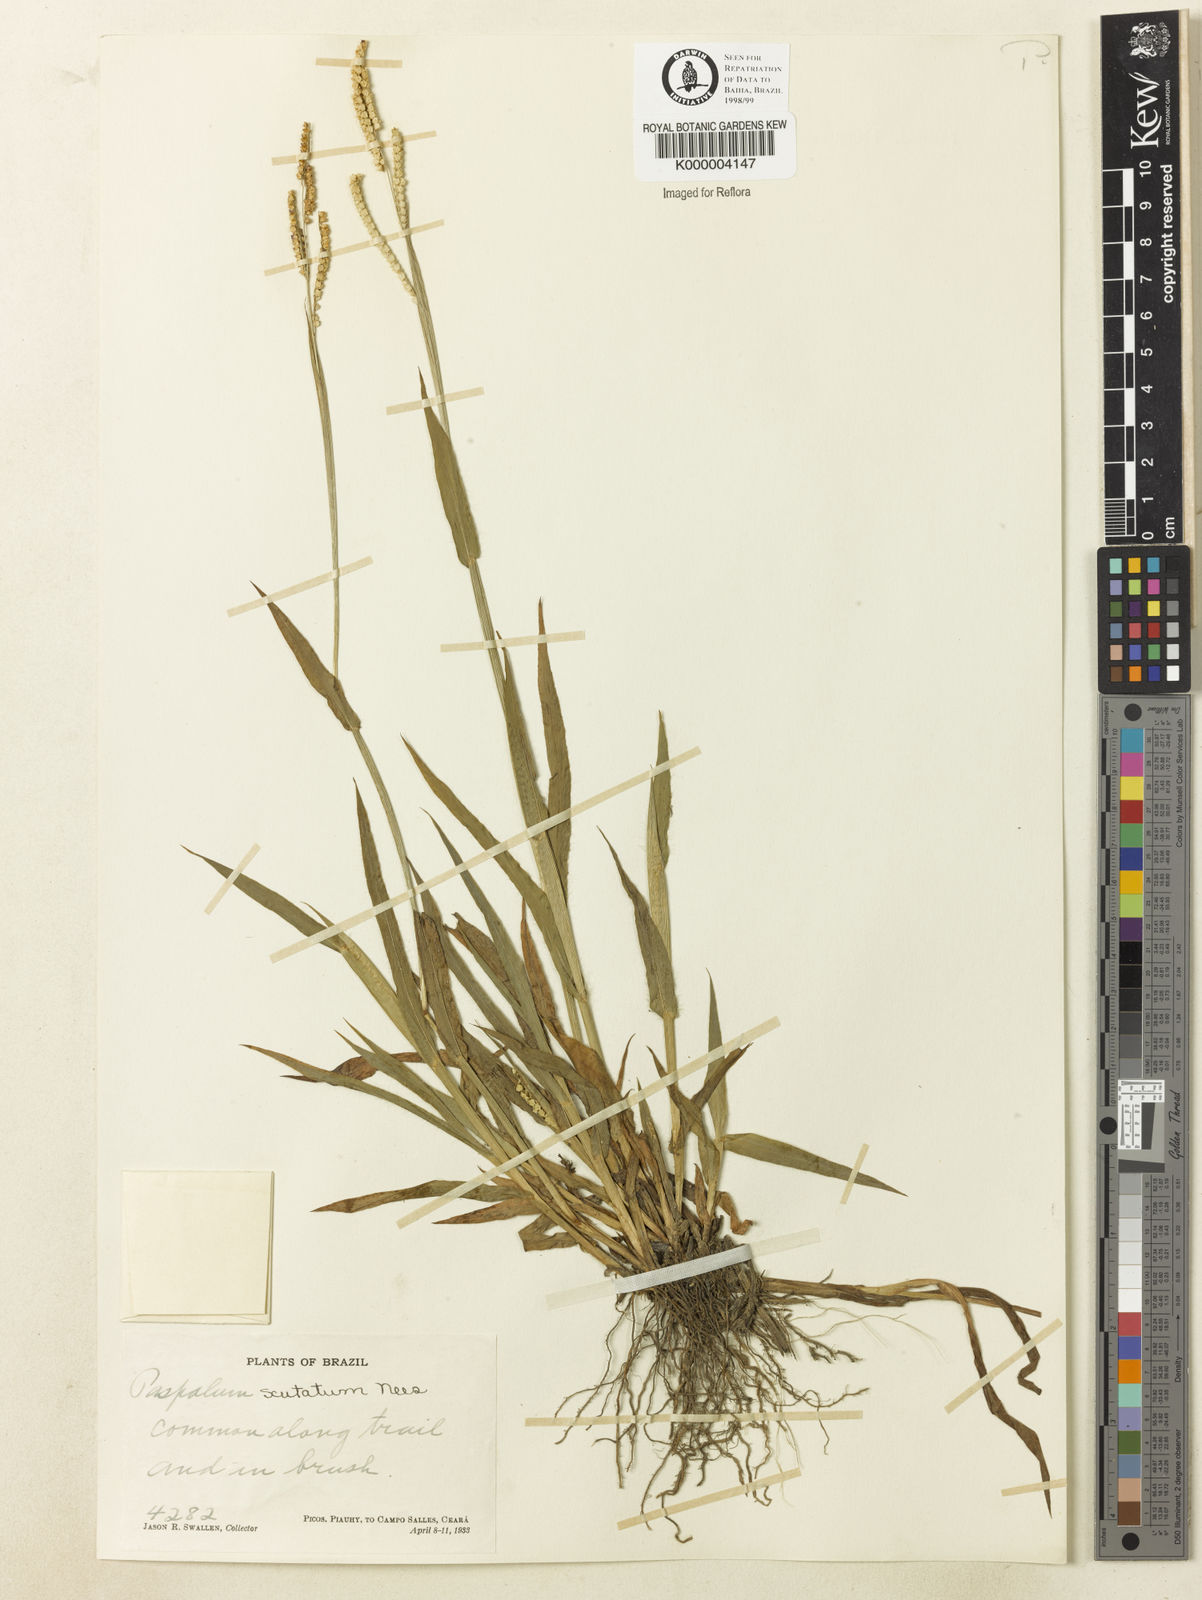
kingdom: Plantae
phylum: Tracheophyta
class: Liliopsida
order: Poales
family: Poaceae
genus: Paspalum
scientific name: Paspalum
